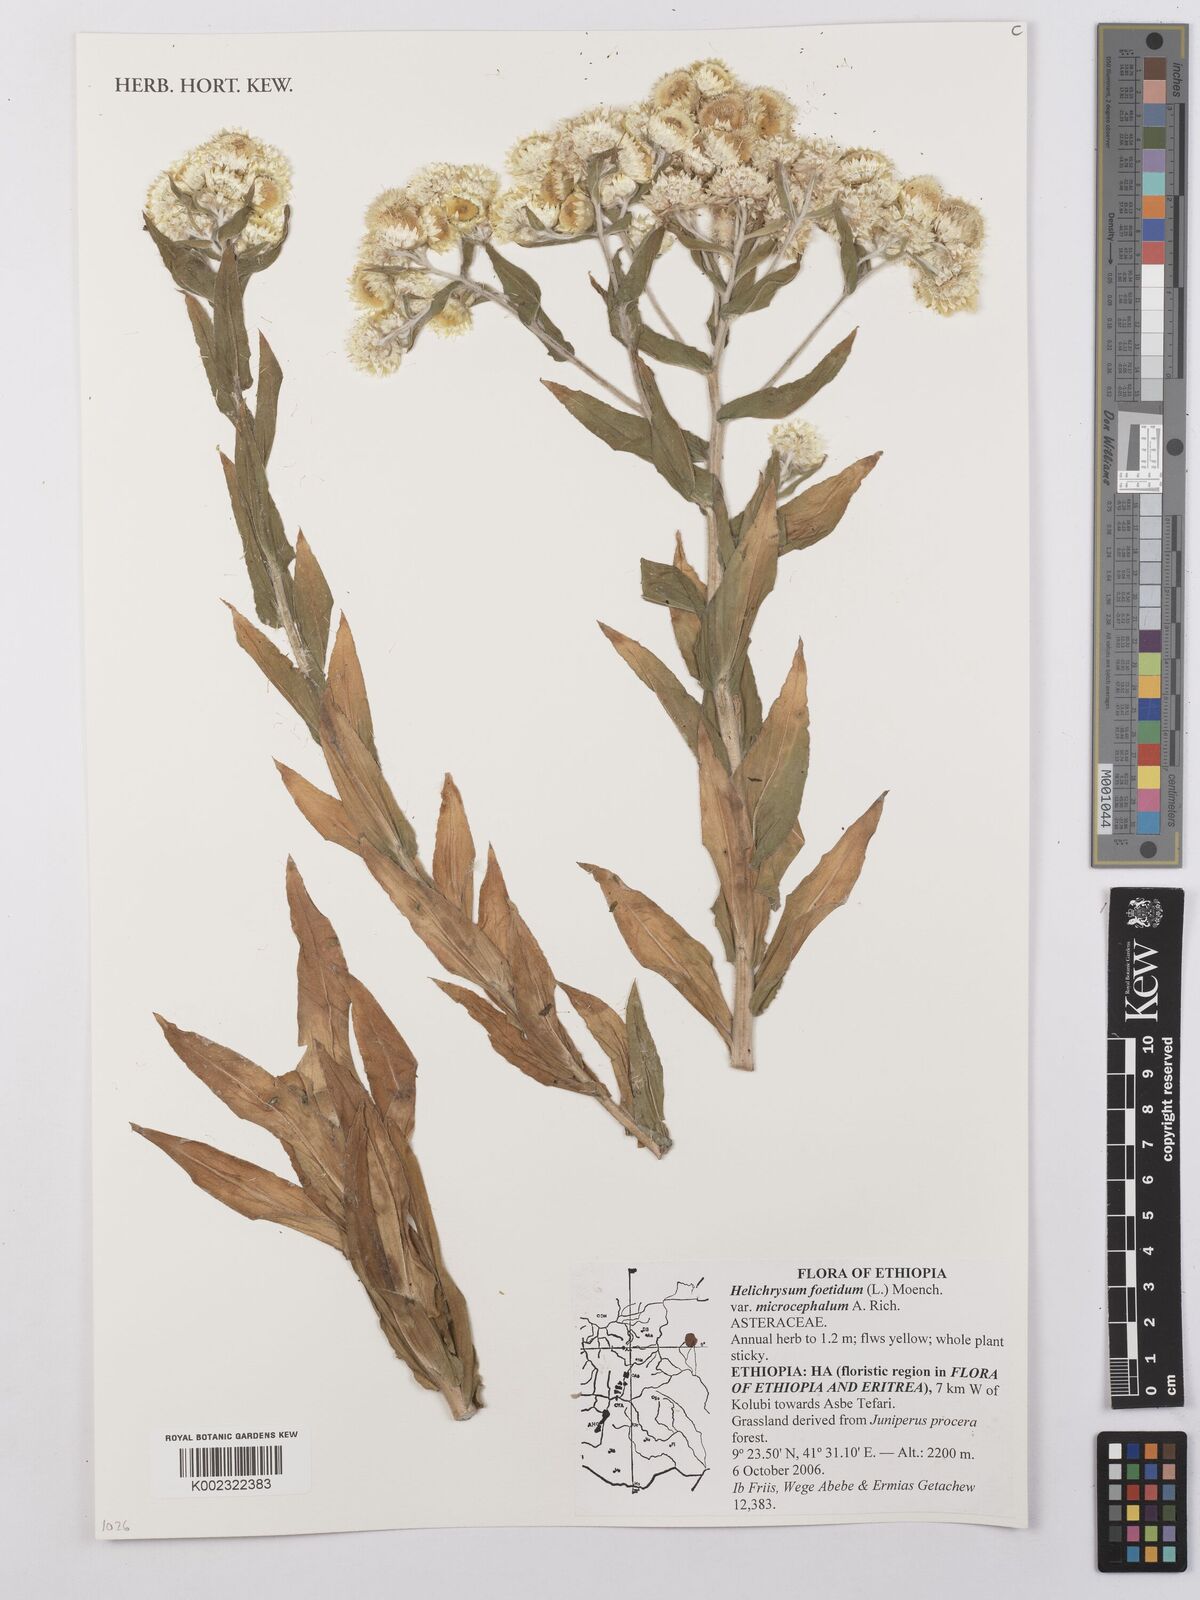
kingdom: Plantae
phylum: Tracheophyta
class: Magnoliopsida
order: Asterales
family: Asteraceae
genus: Helichrysum
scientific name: Helichrysum foetidum
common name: Stinking everlasting
